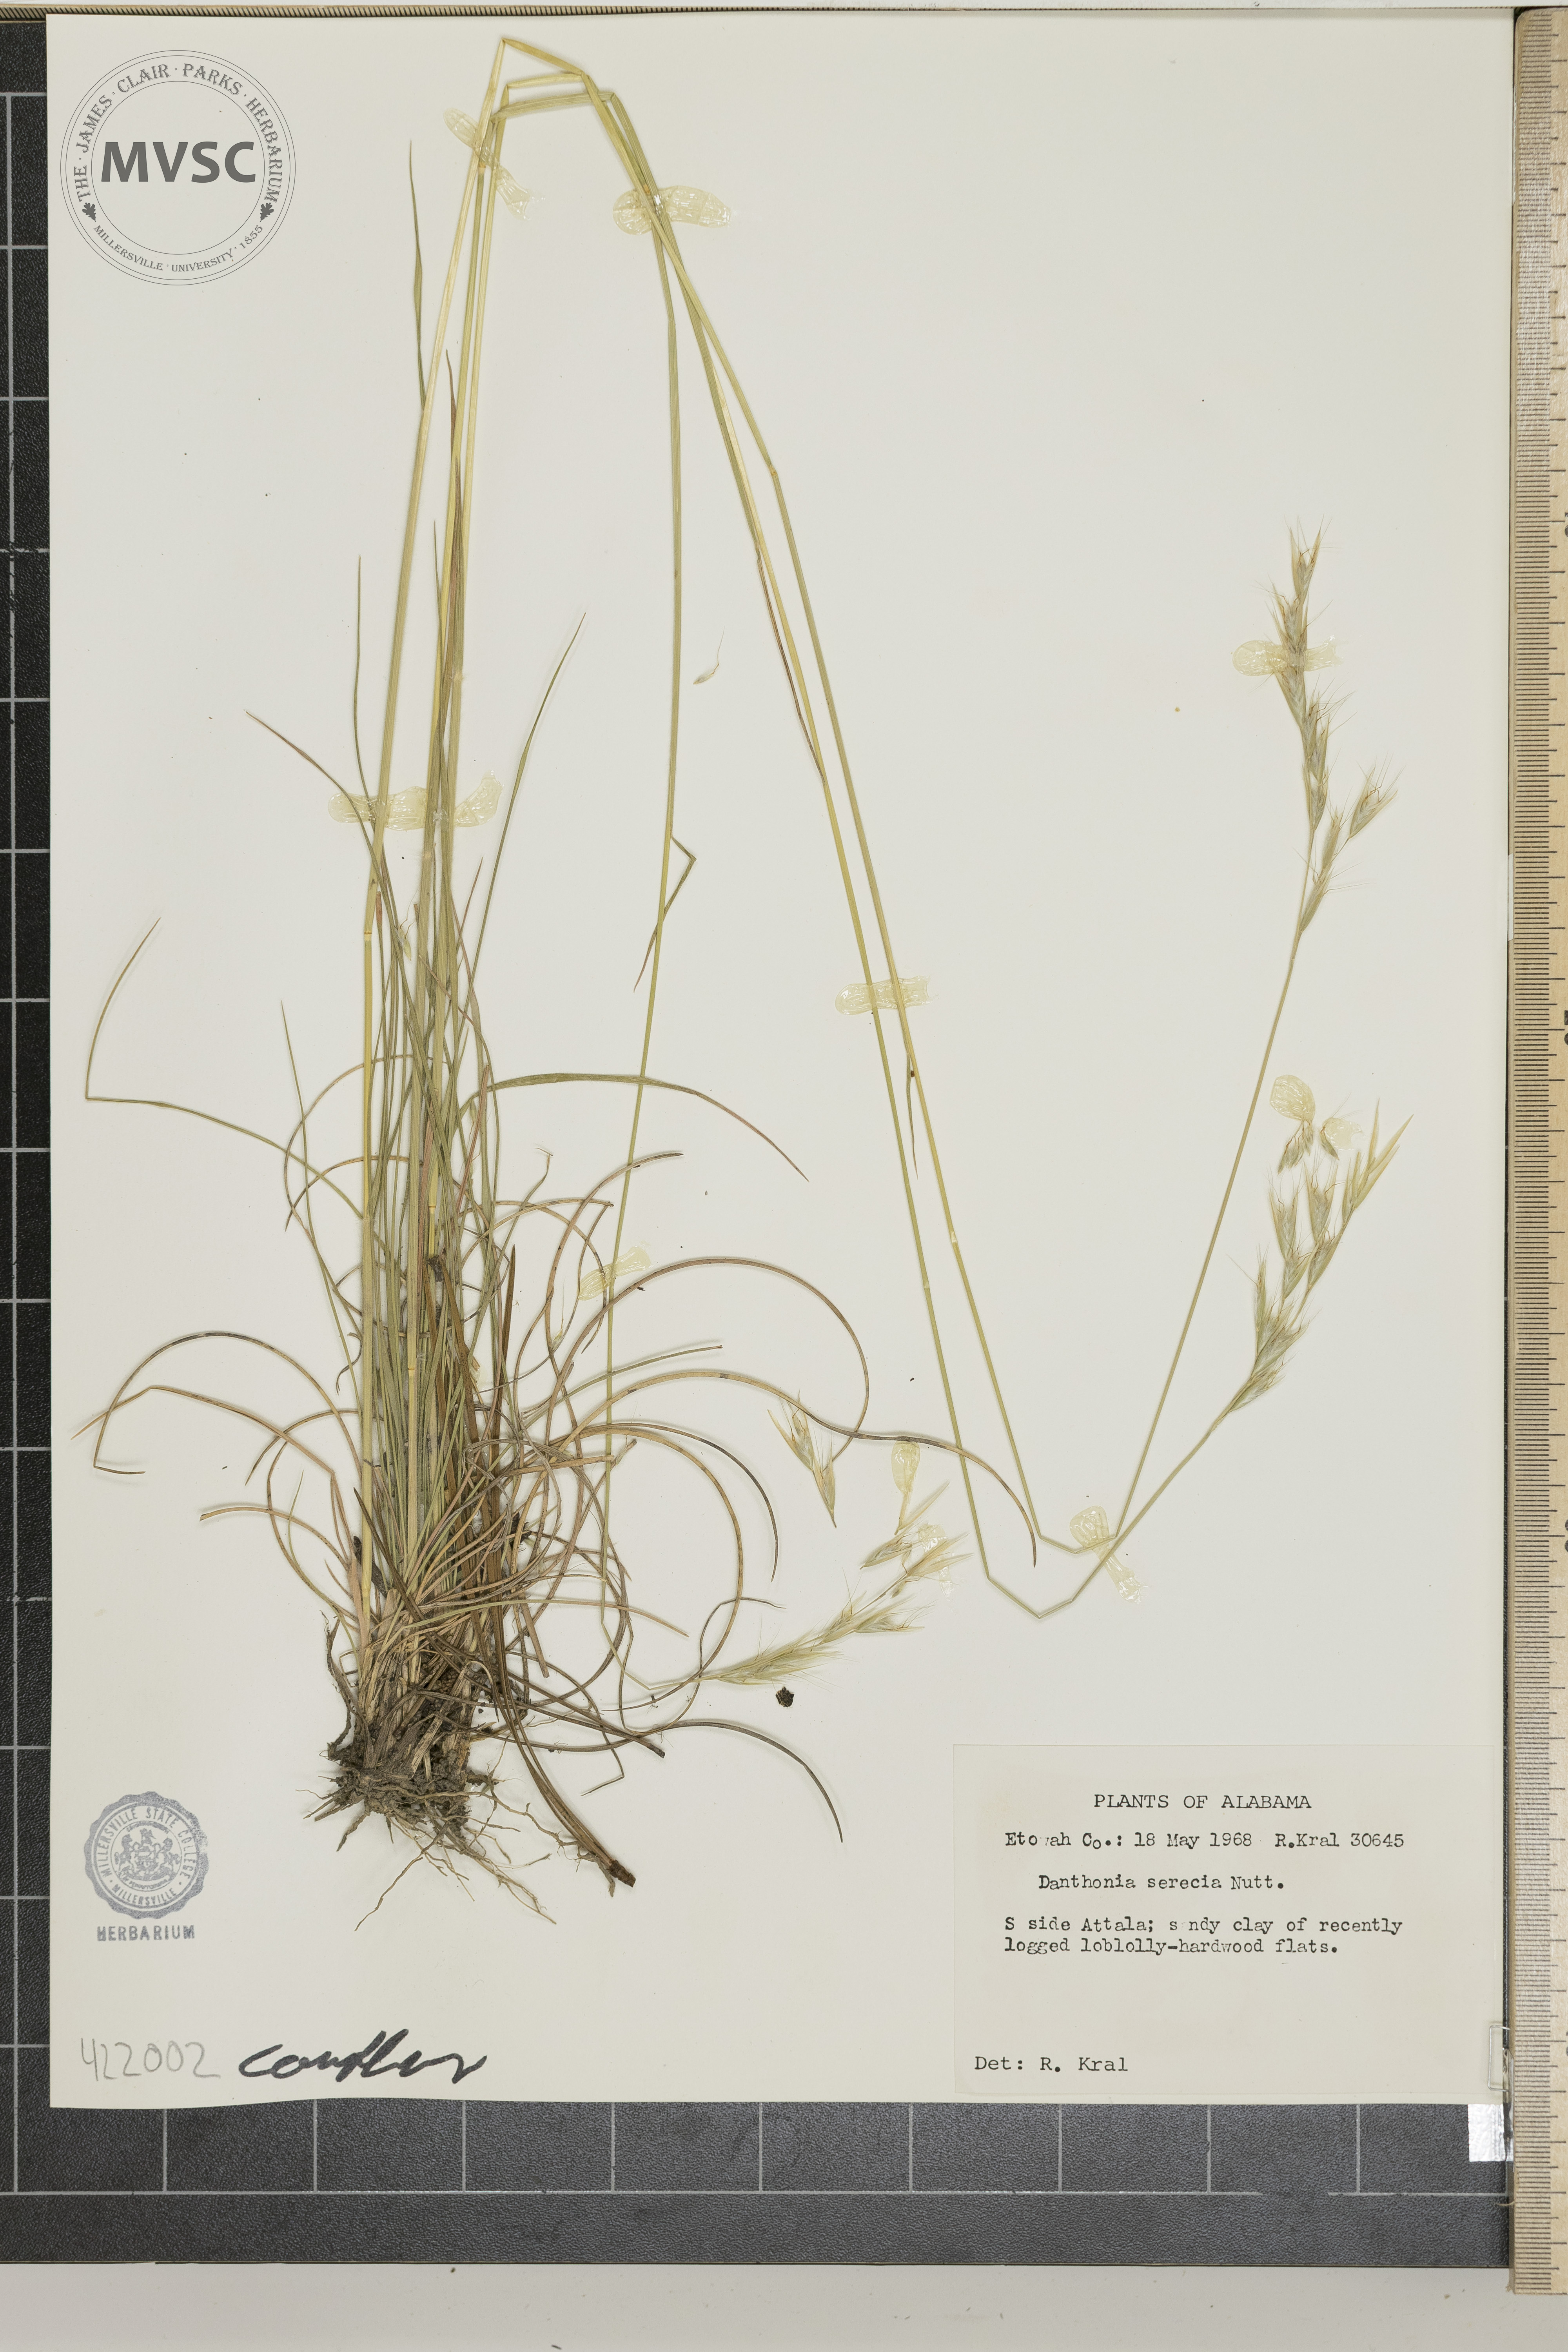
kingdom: Plantae
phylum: Tracheophyta
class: Liliopsida
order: Poales
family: Poaceae
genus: Danthonia
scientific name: Danthonia sericea
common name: Downy danthonia
